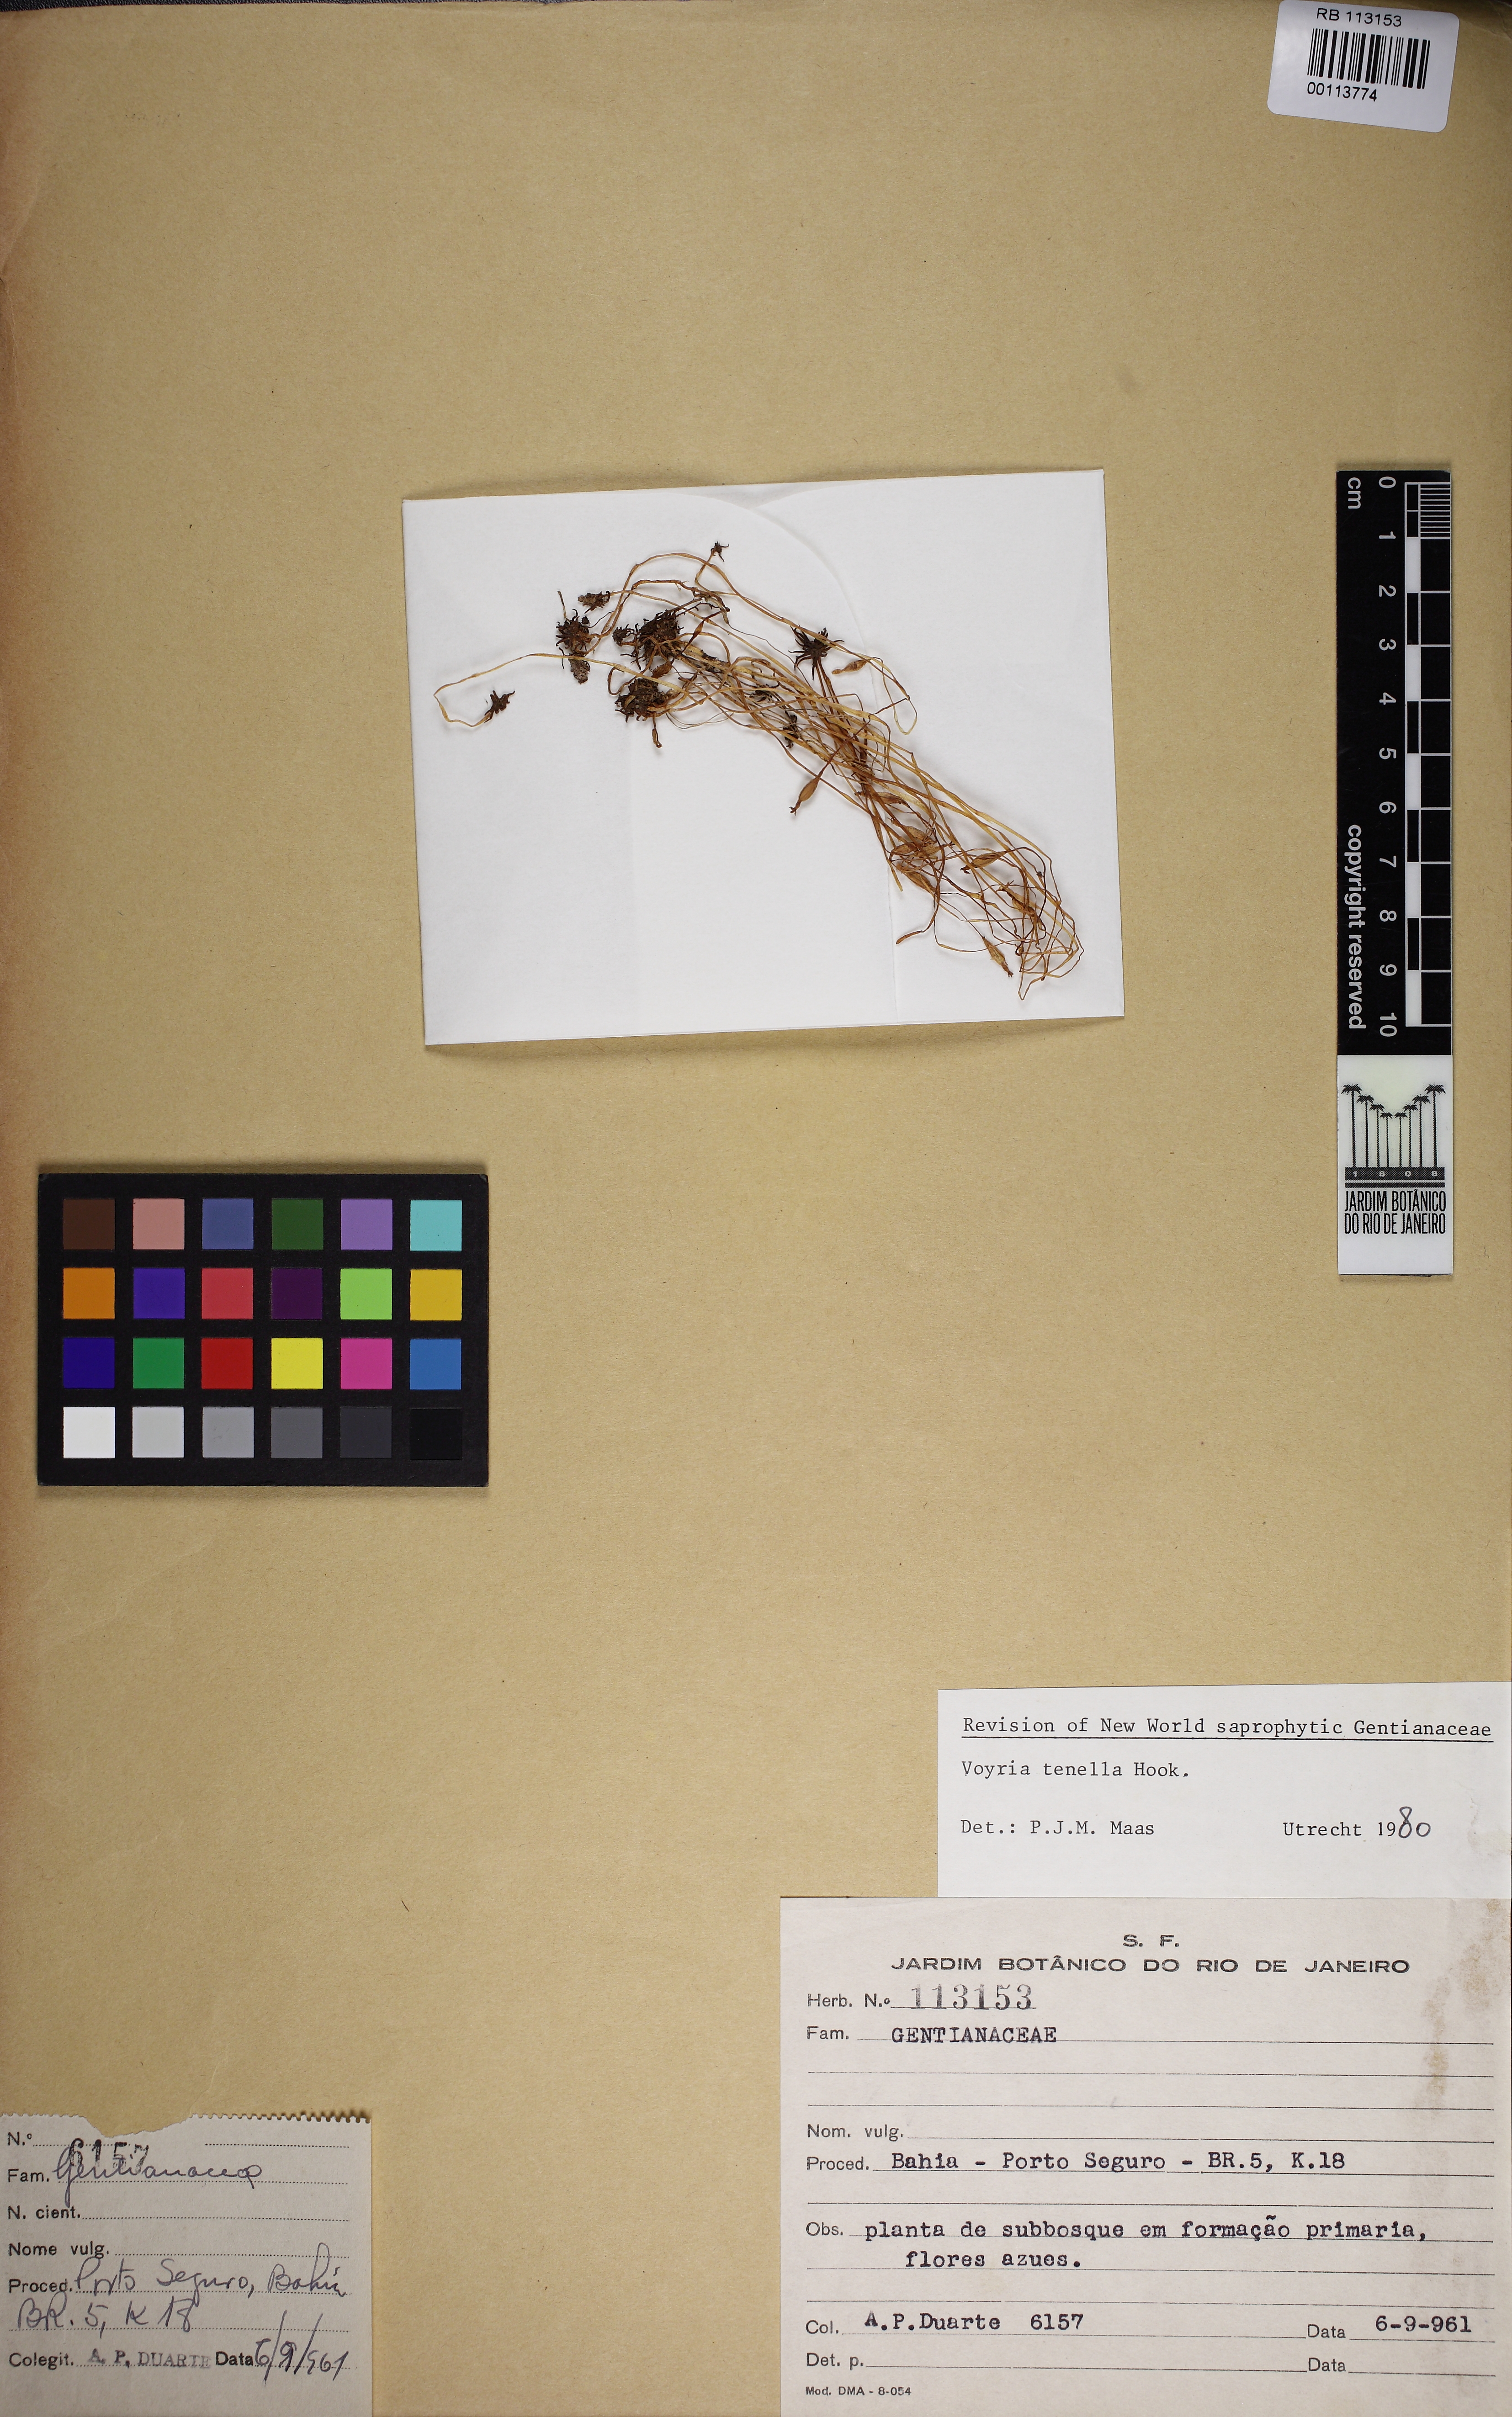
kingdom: Plantae
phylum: Tracheophyta
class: Magnoliopsida
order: Gentianales
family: Gentianaceae
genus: Voyria
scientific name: Voyria tenella
